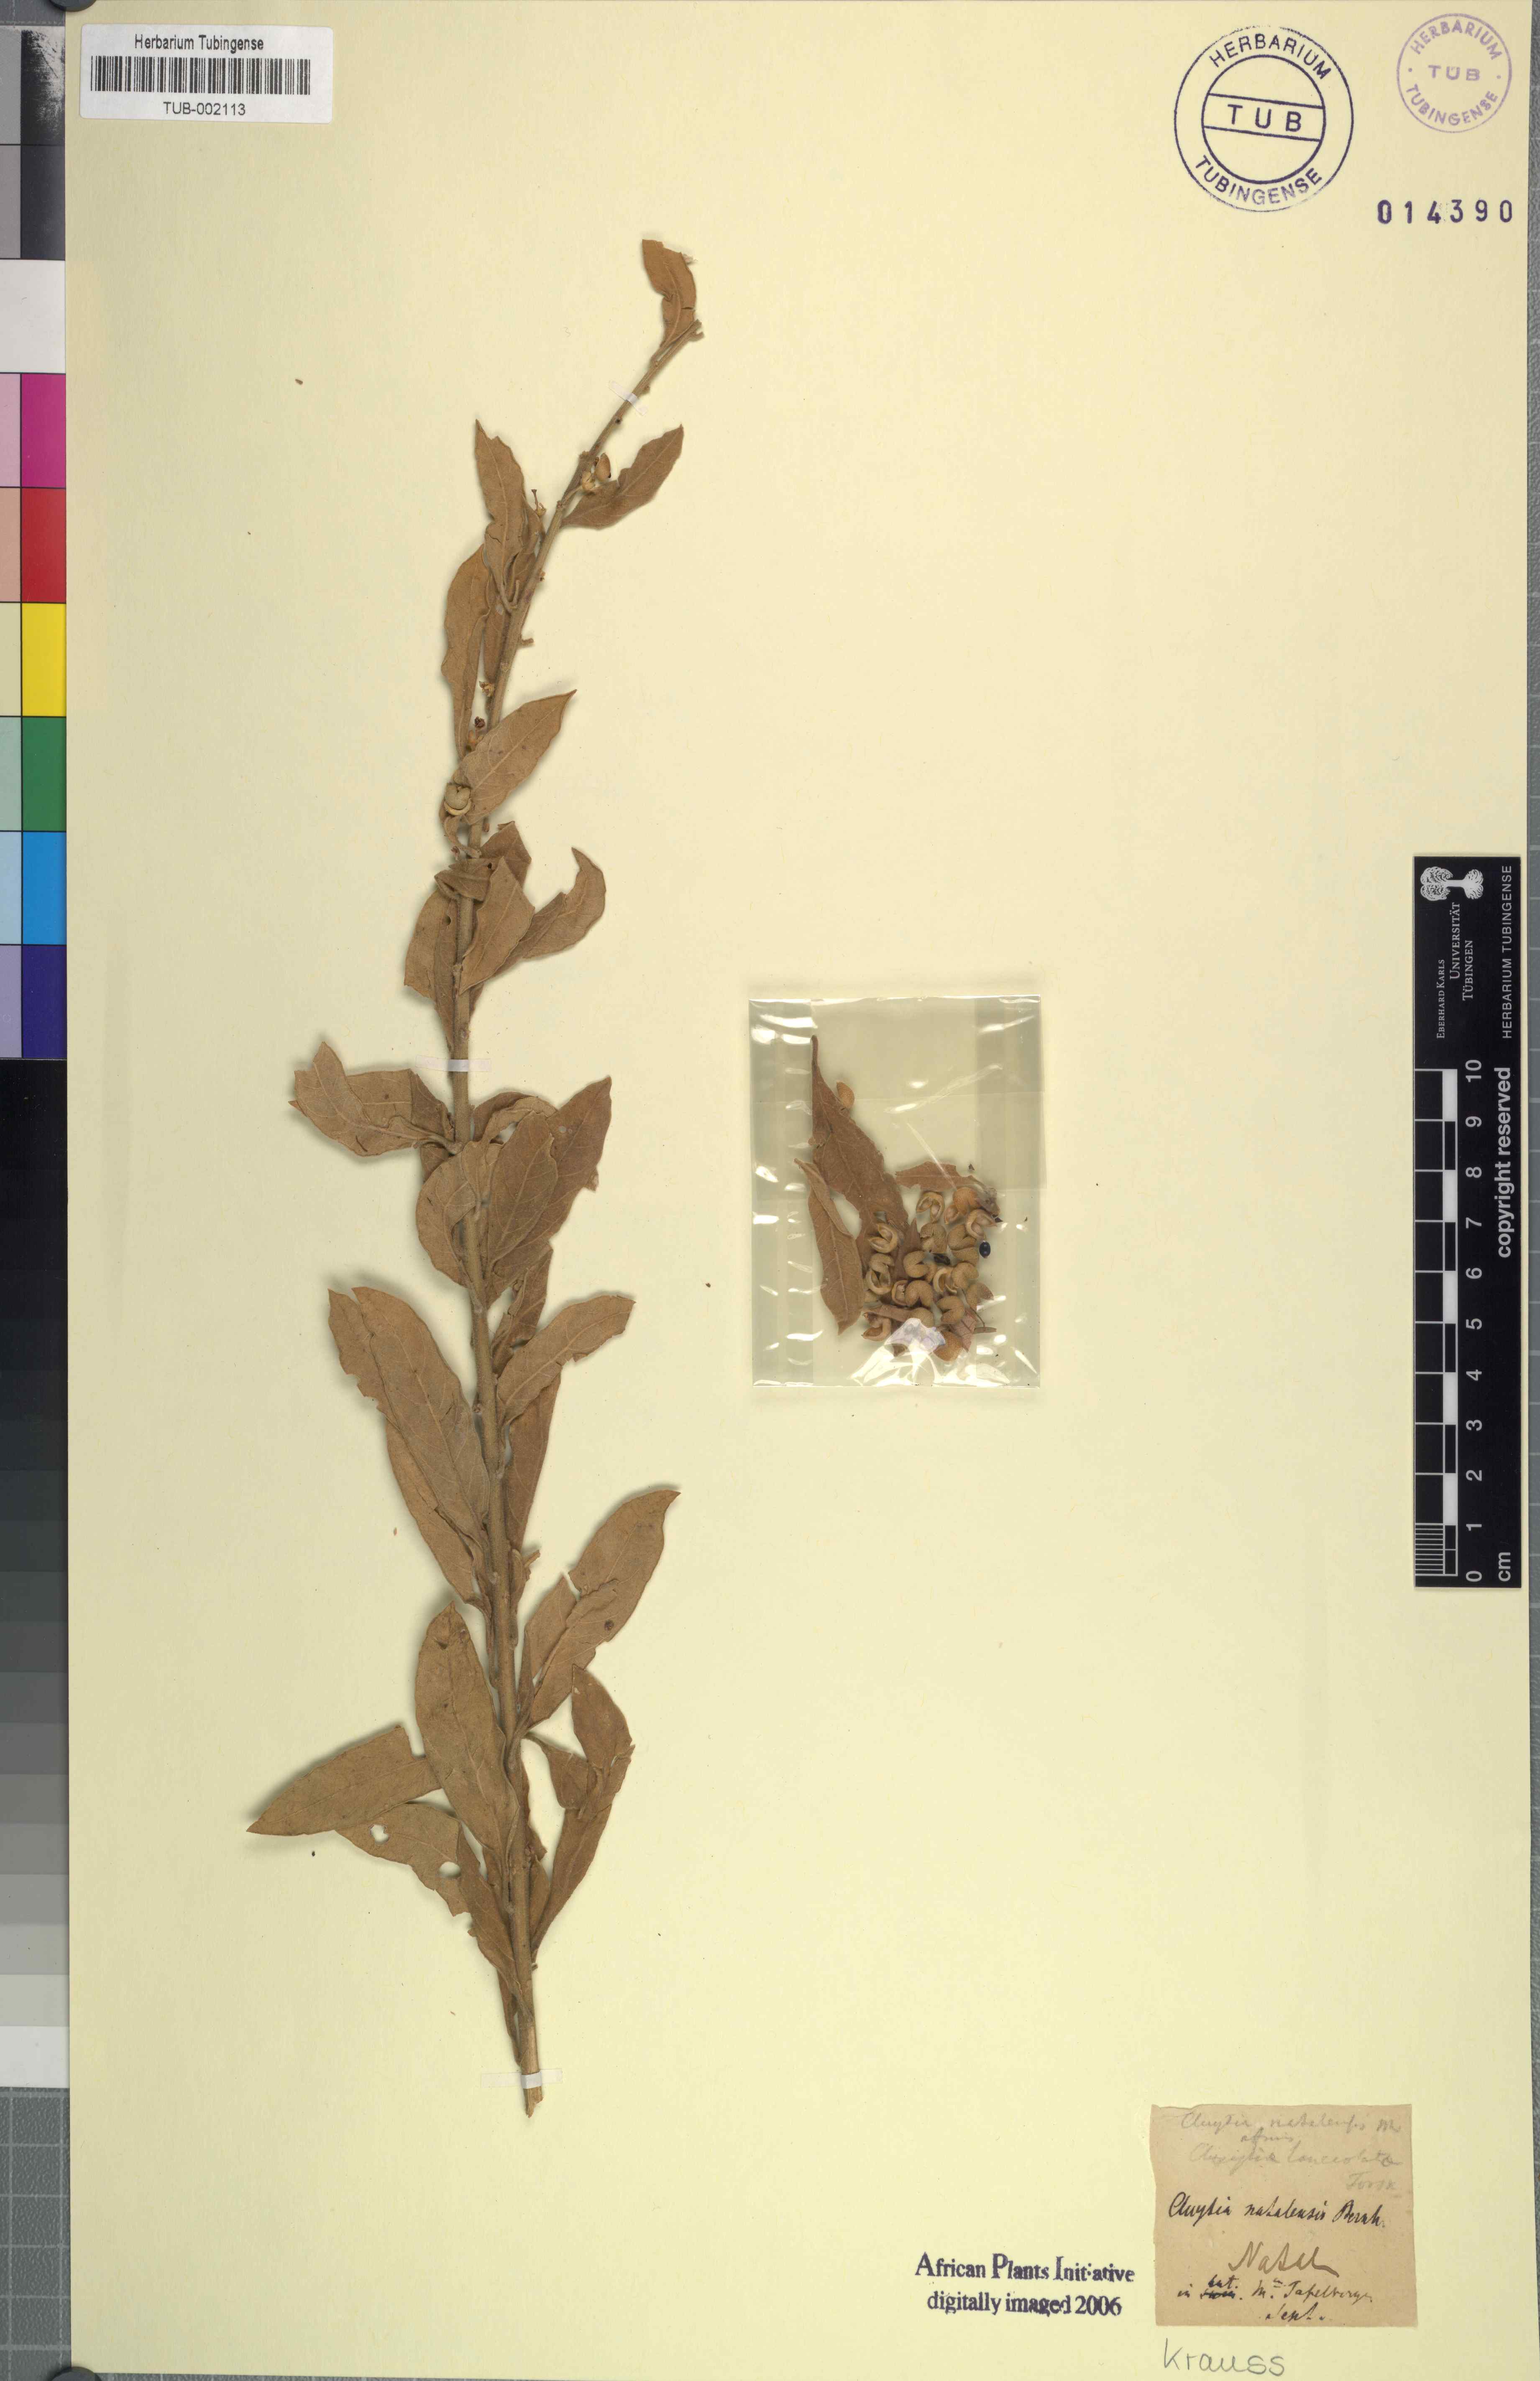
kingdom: Plantae
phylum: Tracheophyta
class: Magnoliopsida
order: Malpighiales
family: Peraceae
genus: Clutia
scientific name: Clutia natalensis
